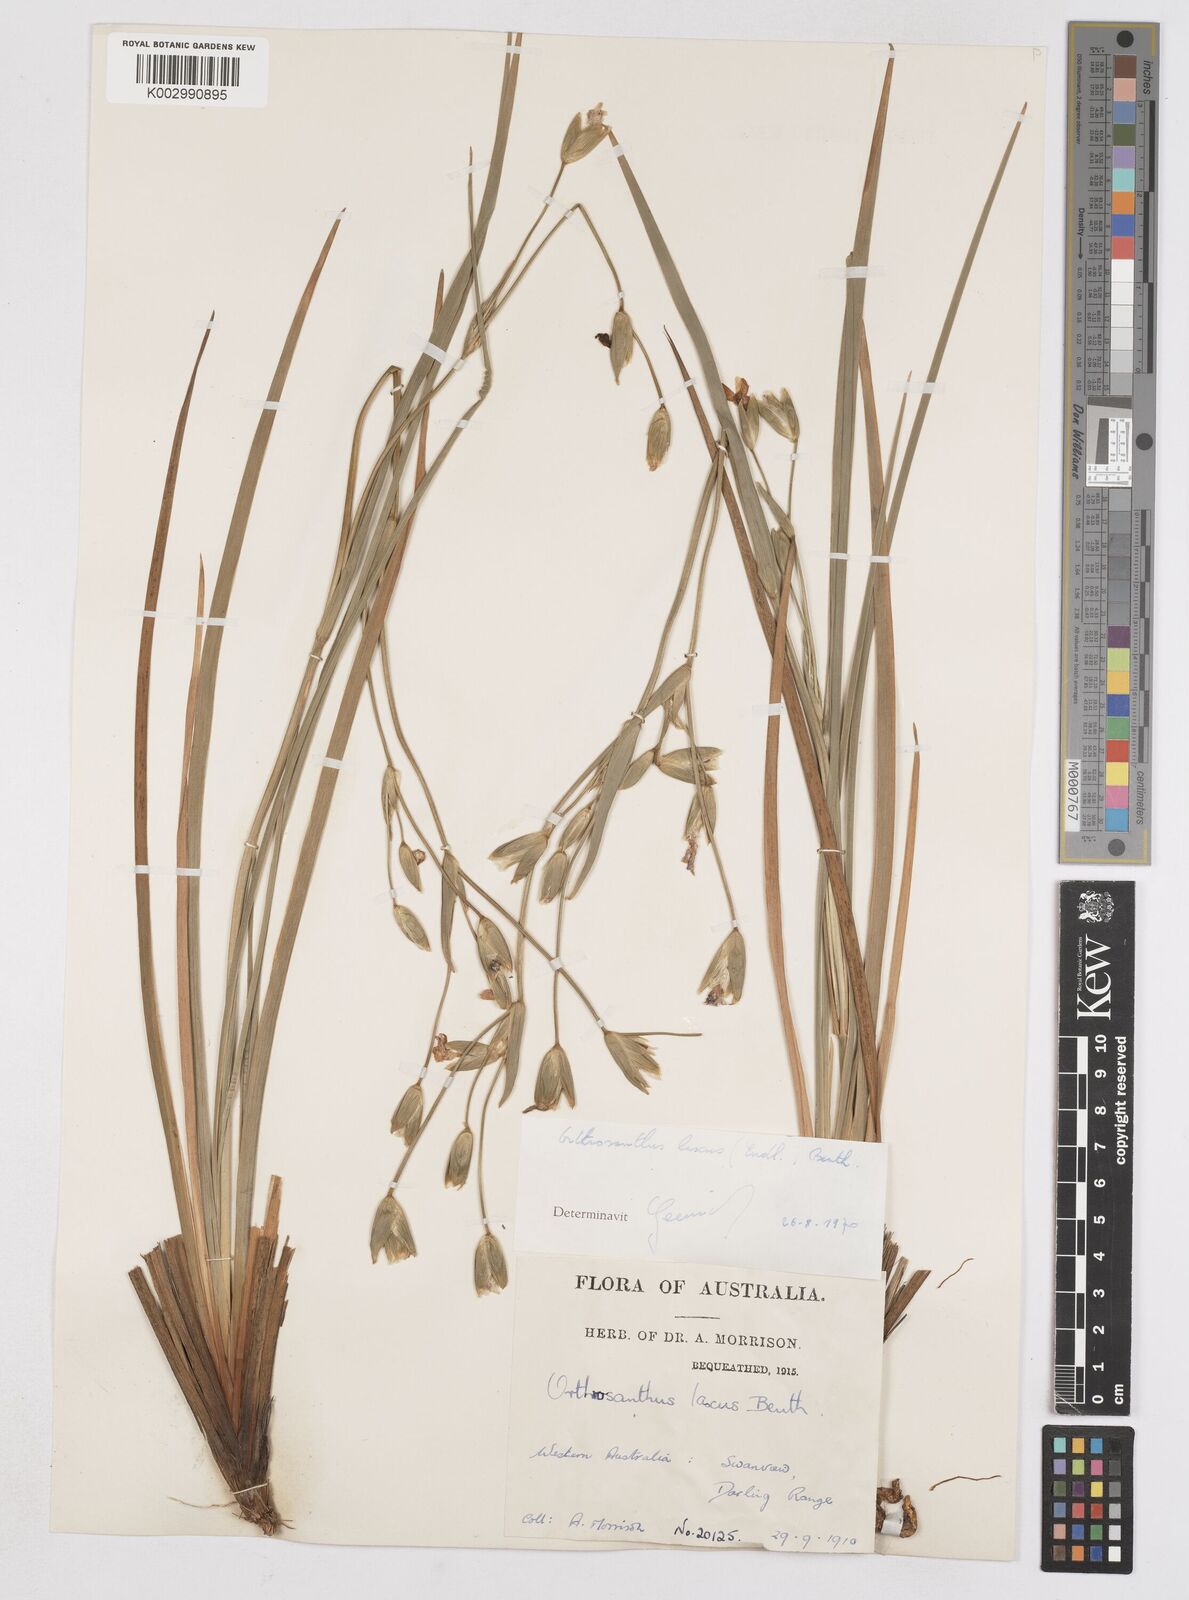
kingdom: Plantae
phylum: Tracheophyta
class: Liliopsida
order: Asparagales
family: Iridaceae
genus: Orthrosanthus
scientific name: Orthrosanthus laxus
